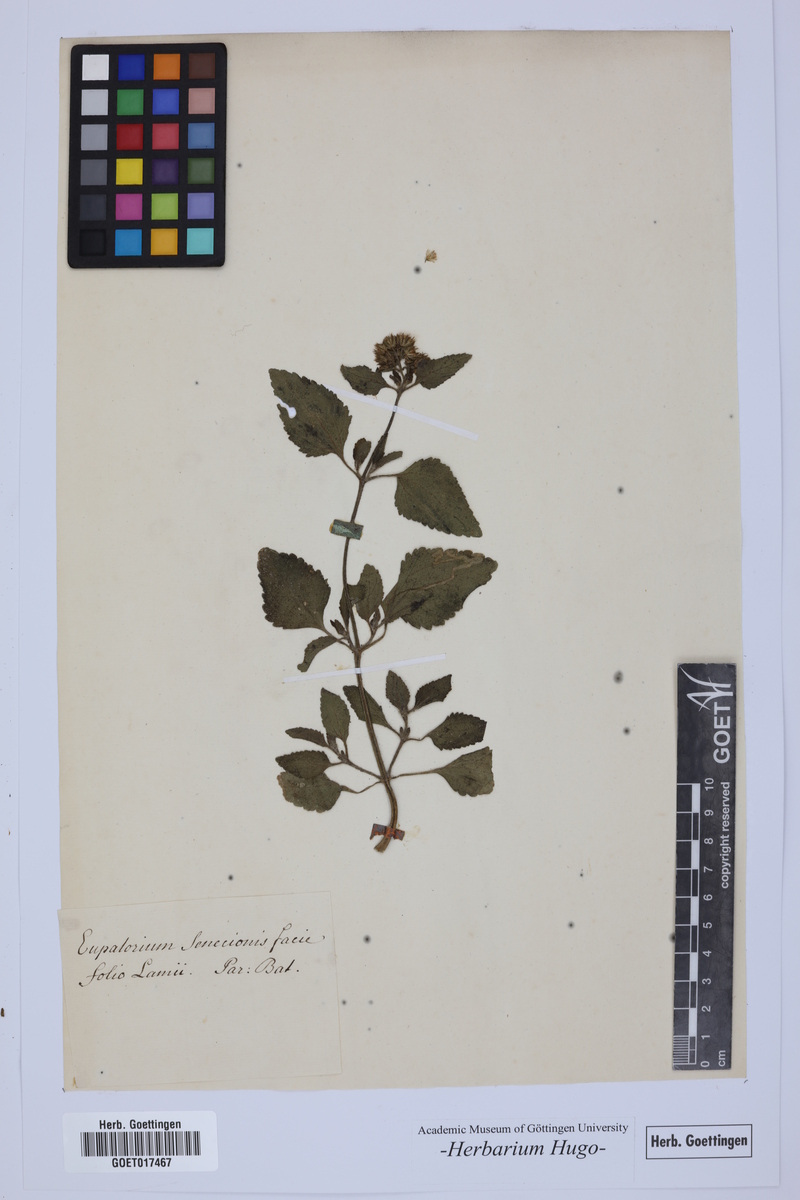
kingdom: Plantae
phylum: Tracheophyta
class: Magnoliopsida
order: Asterales
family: Asteraceae
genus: Ageratum
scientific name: Ageratum conyzoides
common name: Tropical whiteweed
